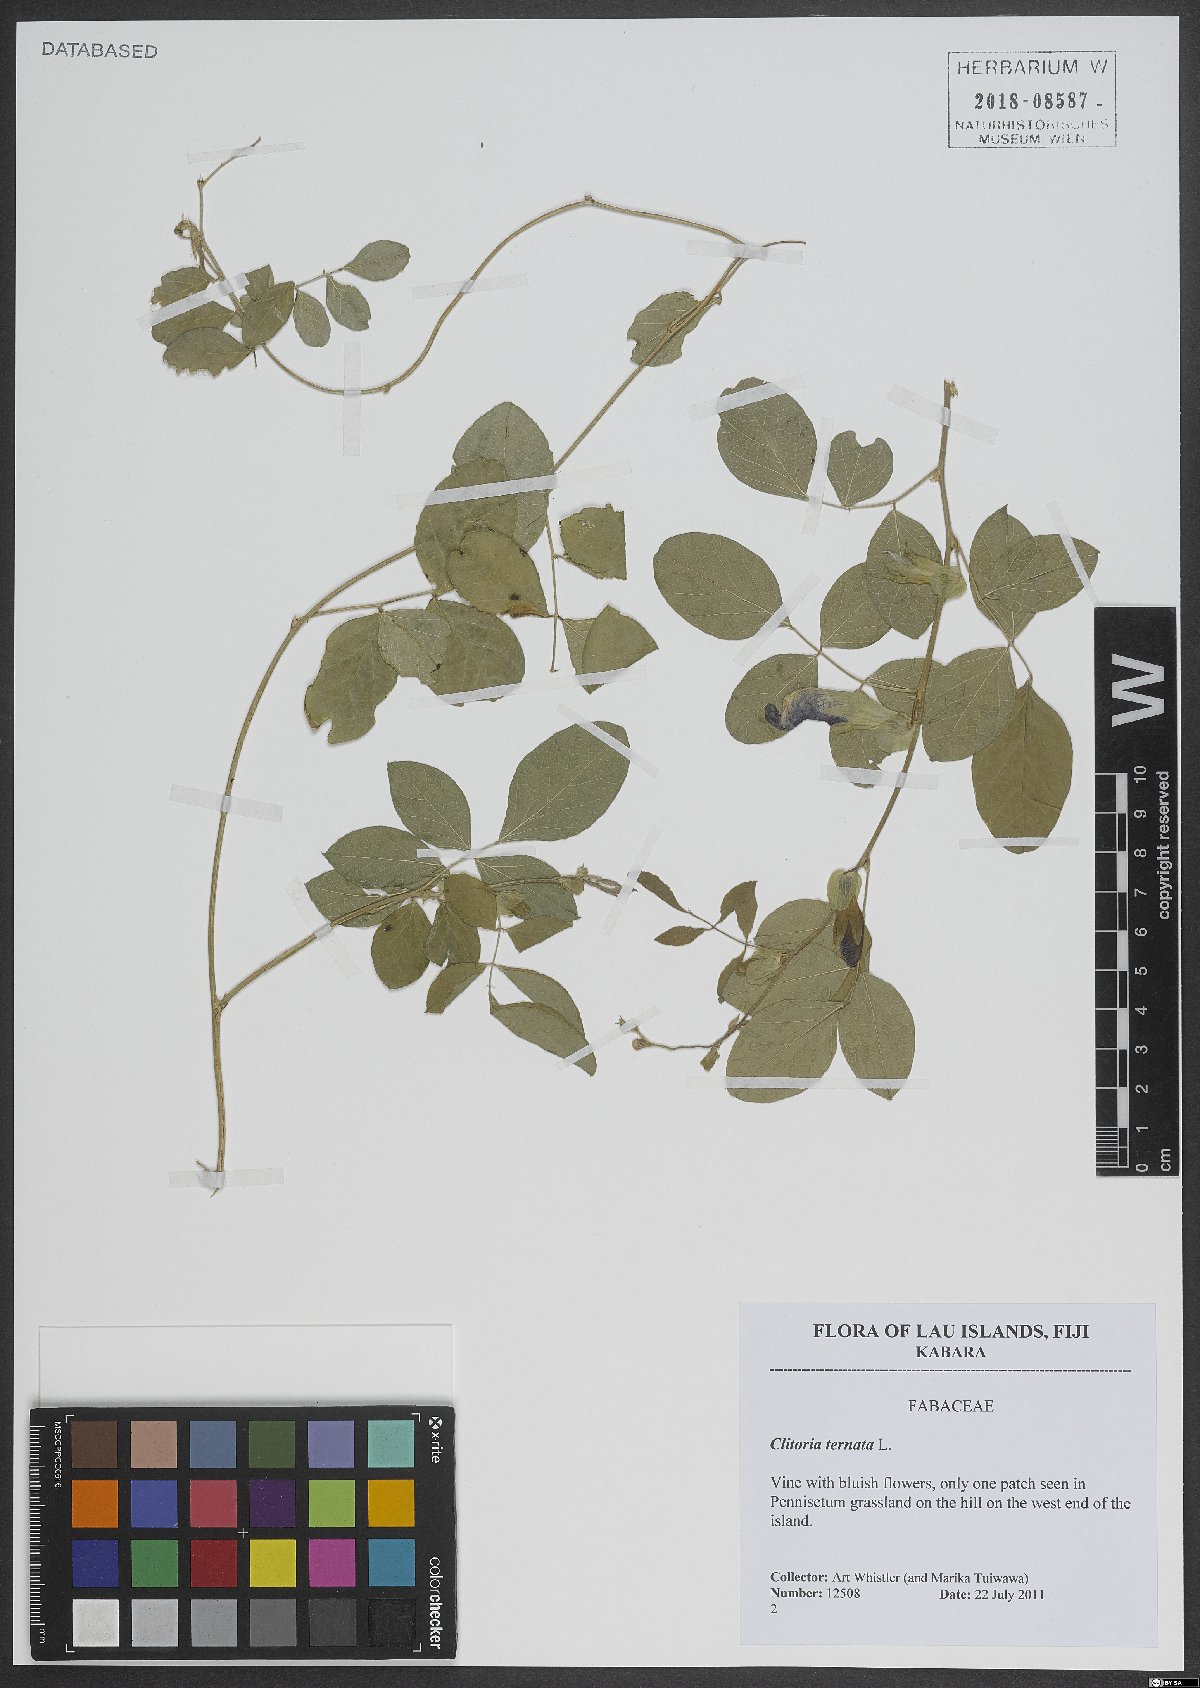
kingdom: Plantae
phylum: Tracheophyta
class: Magnoliopsida
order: Fabales
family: Fabaceae
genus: Clitoria
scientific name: Clitoria ternatea
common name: Asian pigeonwings
